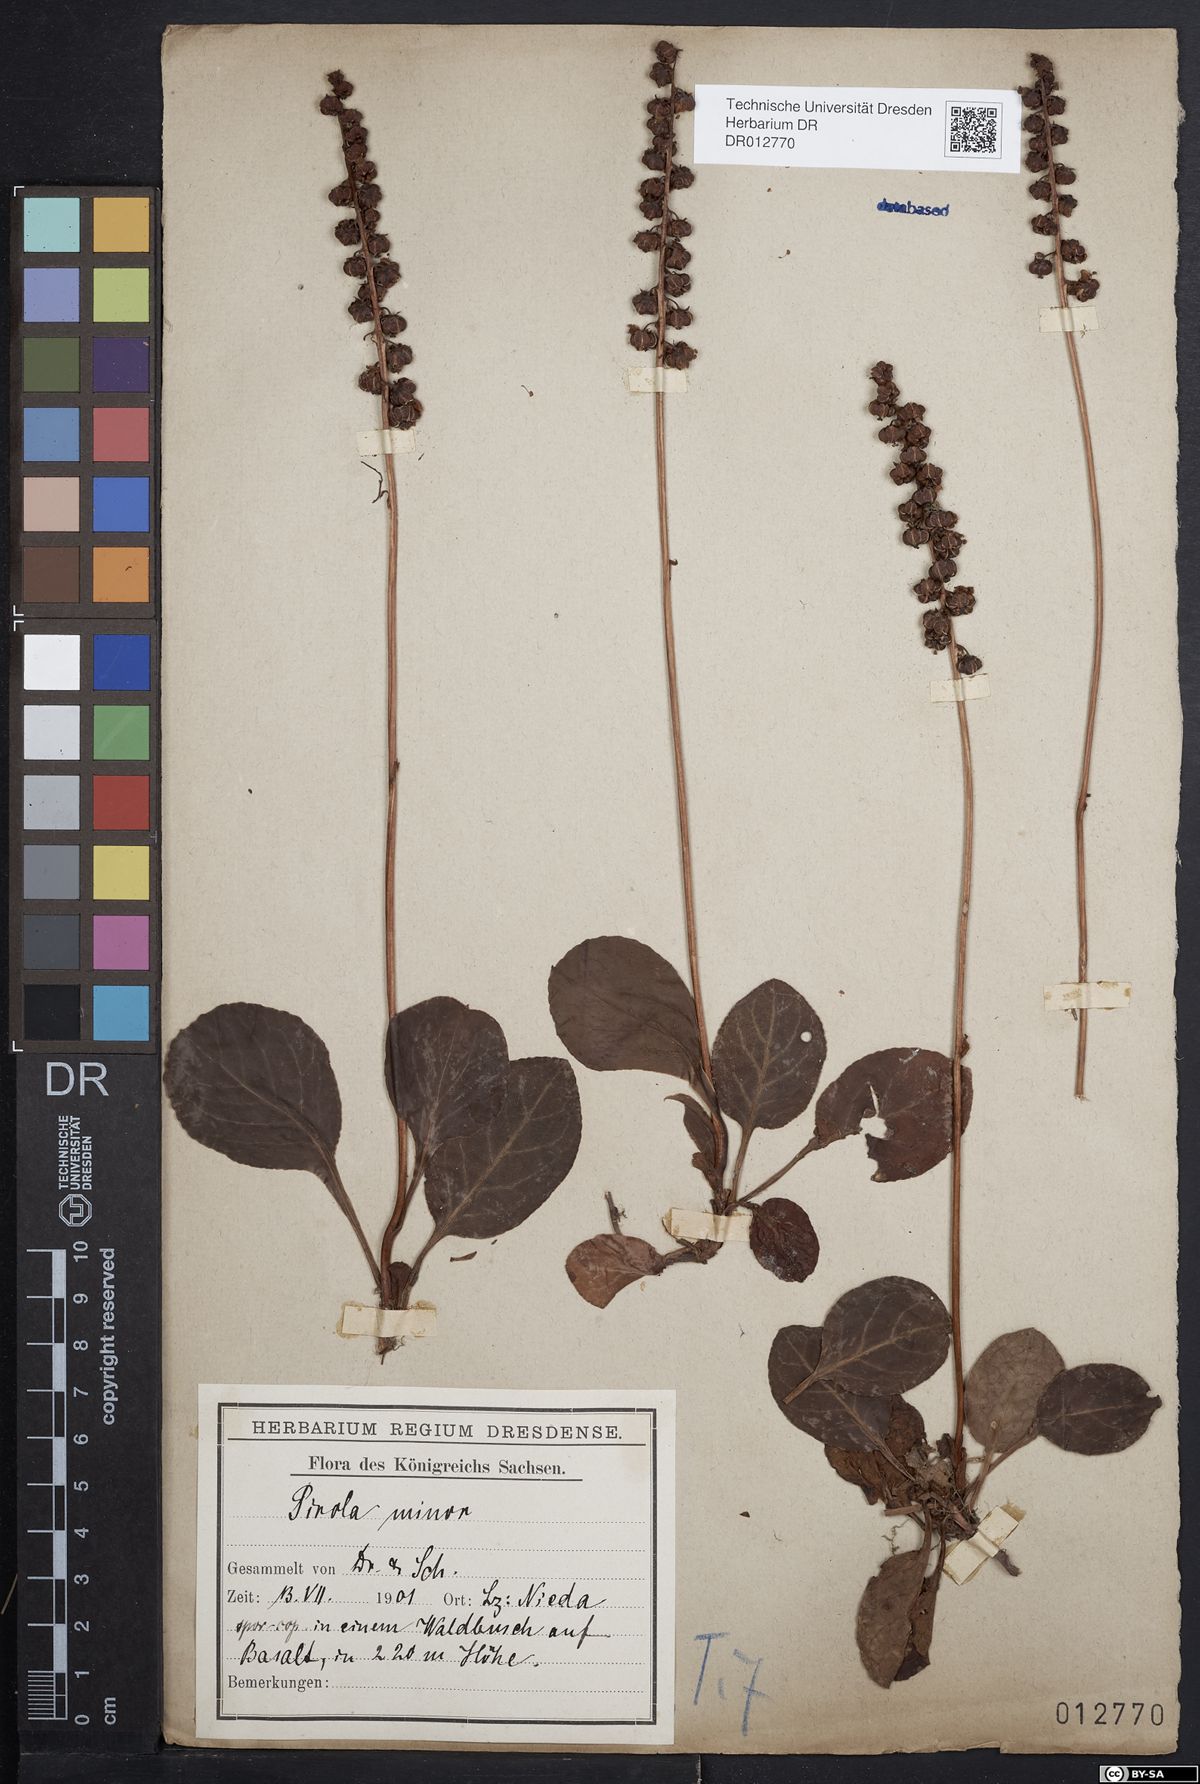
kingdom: Plantae
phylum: Tracheophyta
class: Magnoliopsida
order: Ericales
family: Ericaceae
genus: Pyrola
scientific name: Pyrola minor
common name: Common wintergreen
